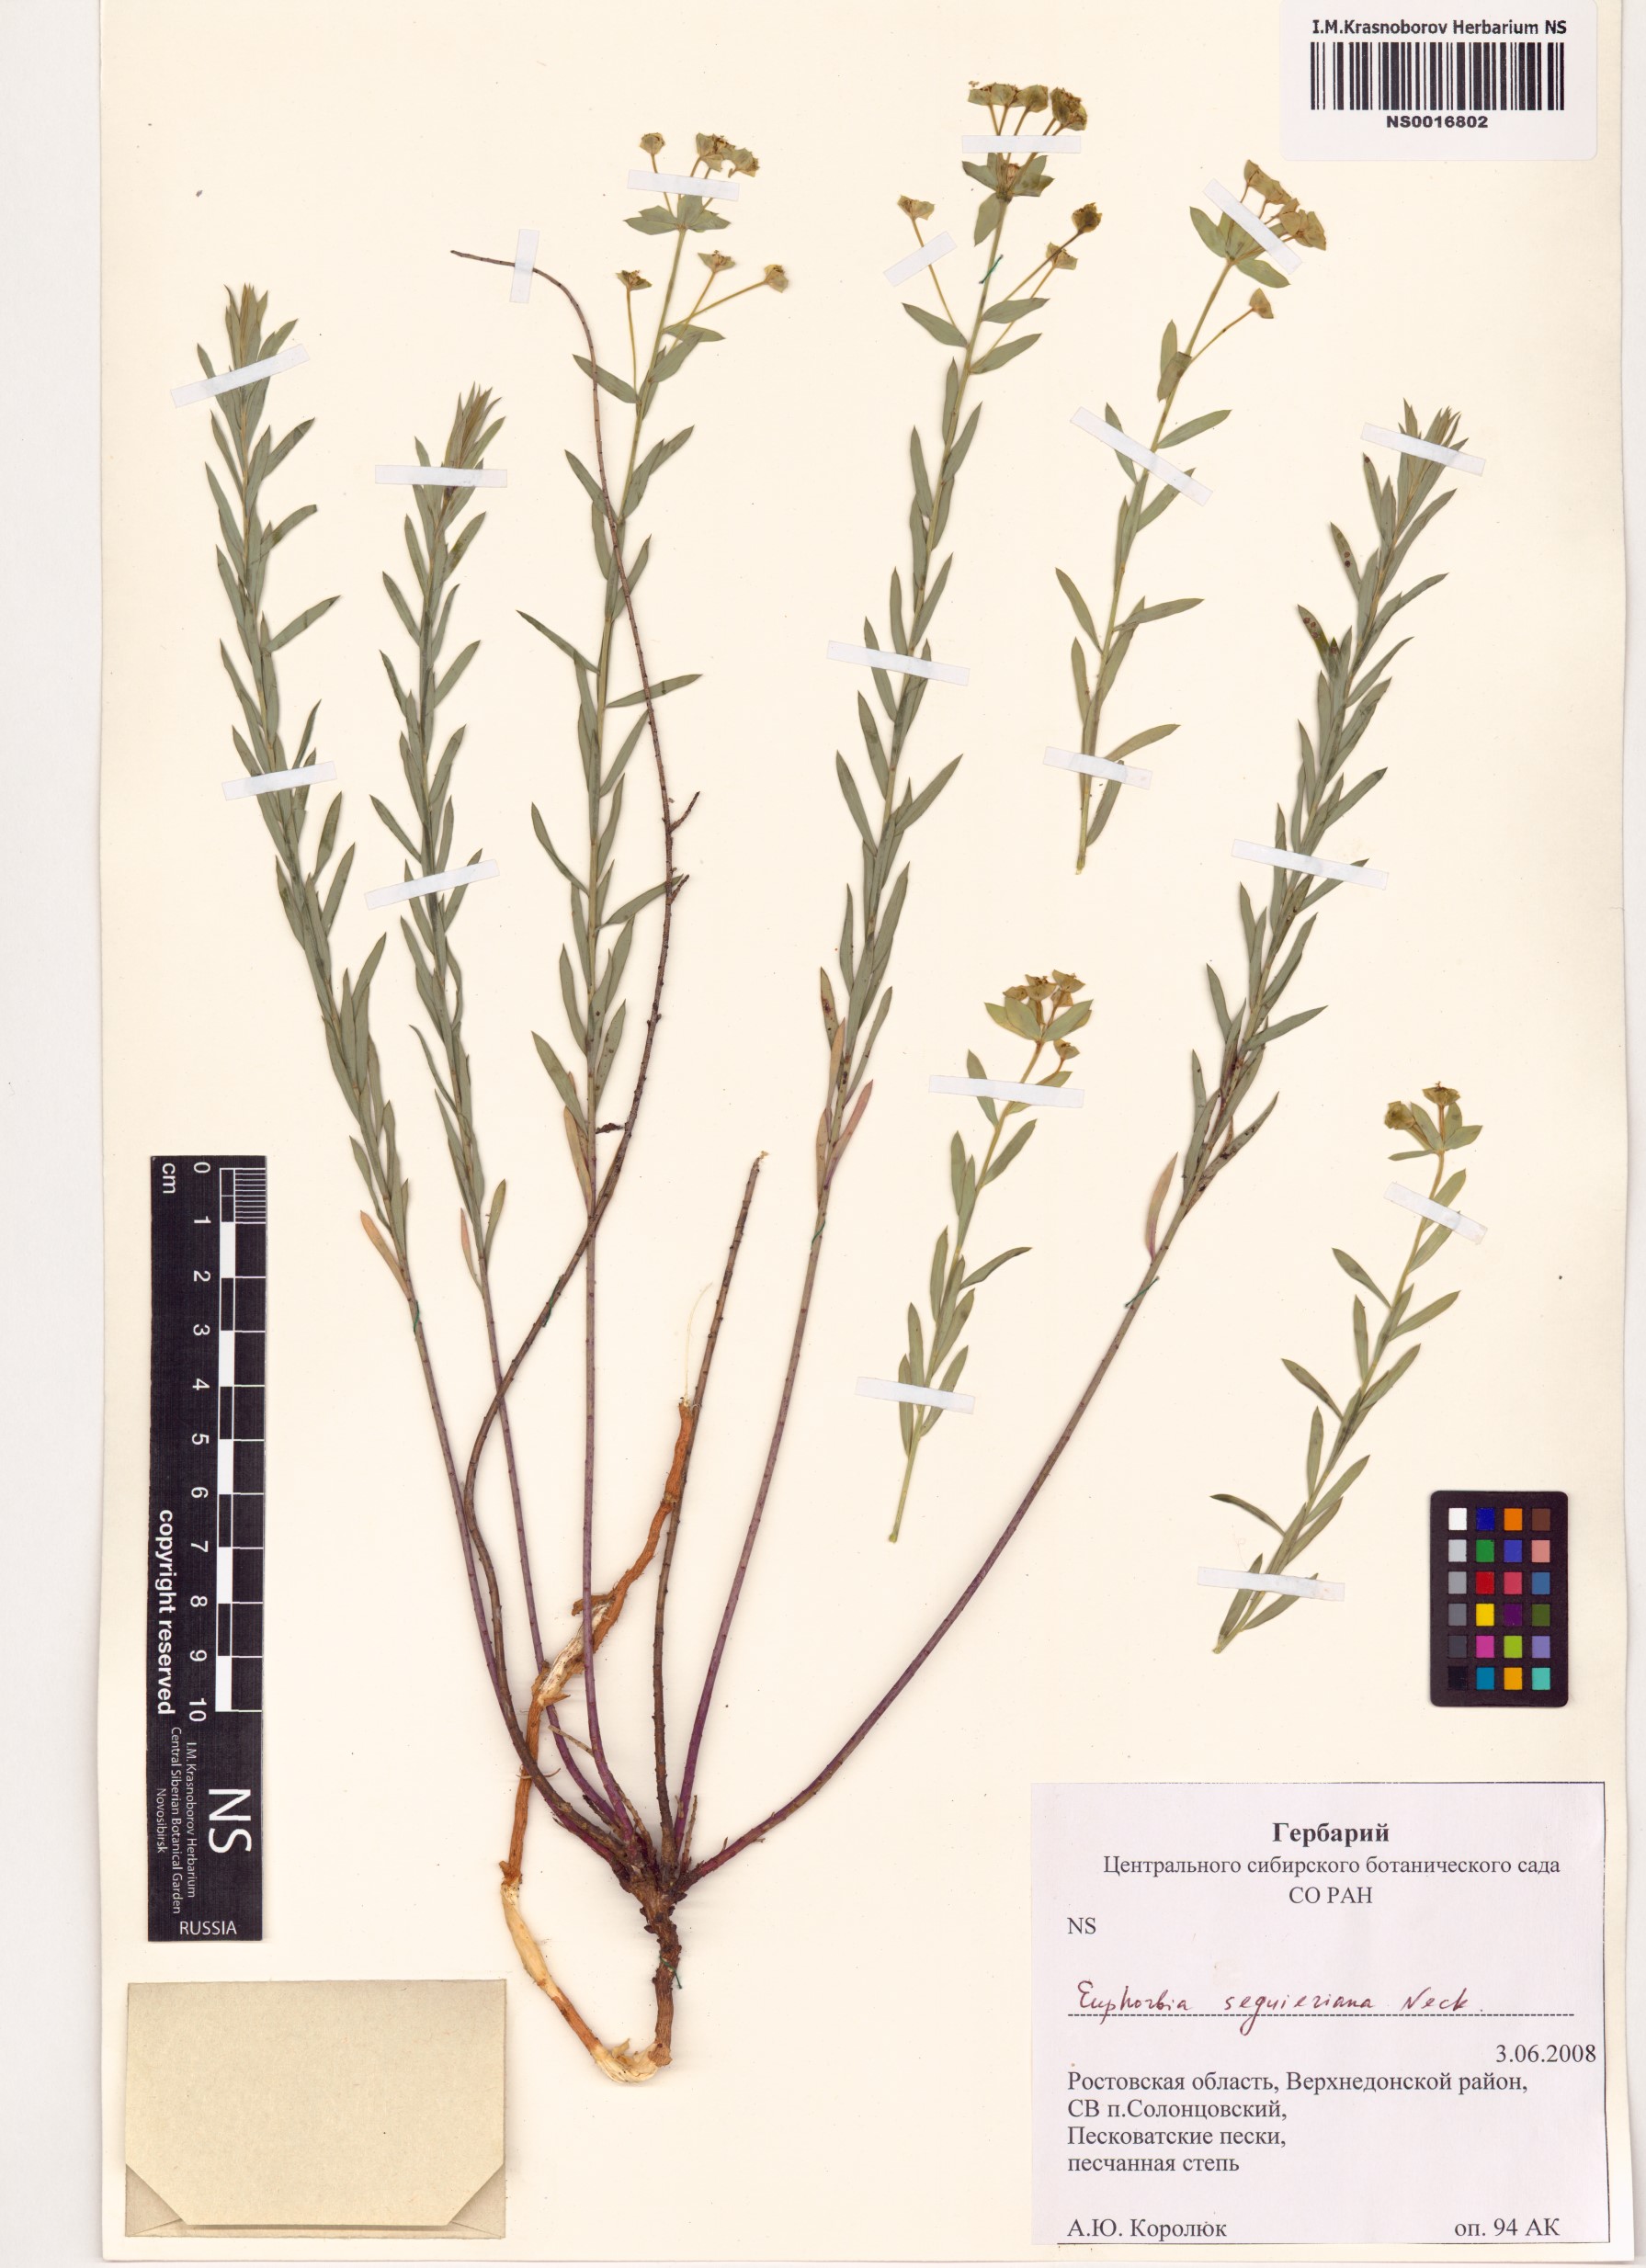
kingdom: Plantae
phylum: Tracheophyta
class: Magnoliopsida
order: Malpighiales
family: Euphorbiaceae
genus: Euphorbia
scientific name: Euphorbia seguieriana
